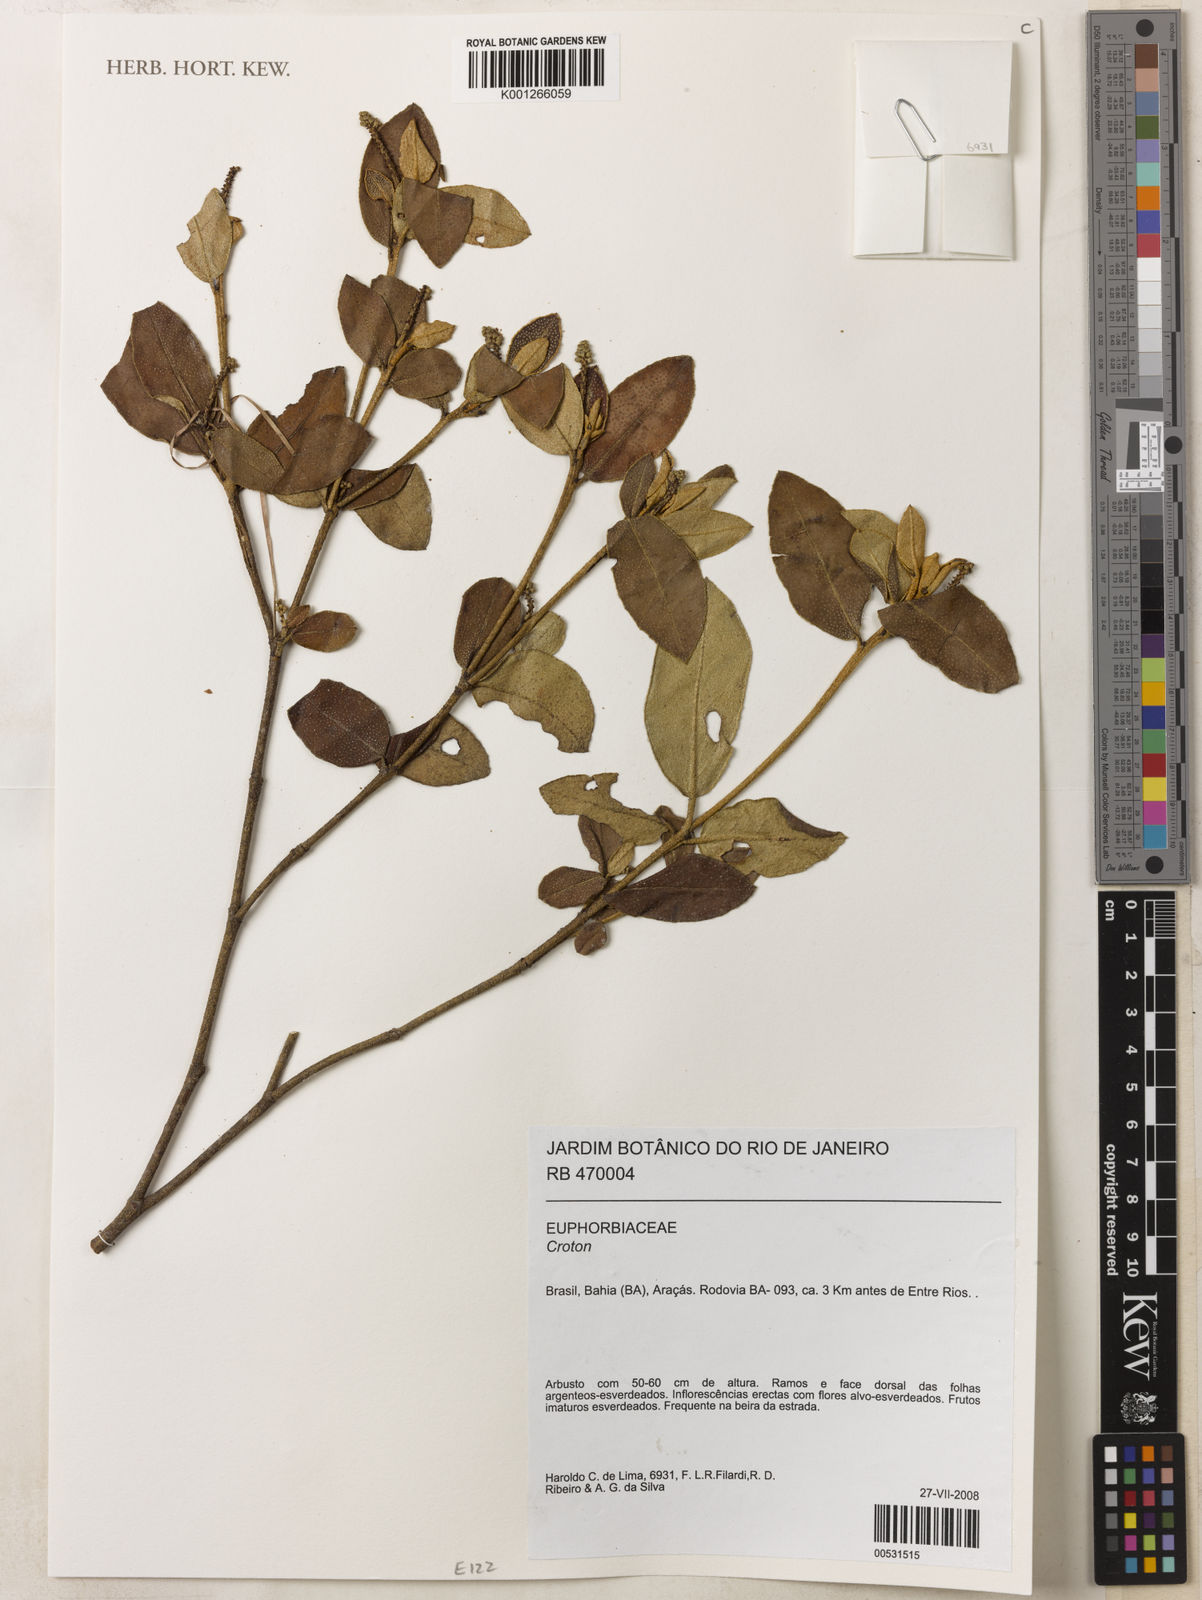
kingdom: Plantae
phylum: Tracheophyta
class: Magnoliopsida
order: Malpighiales
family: Euphorbiaceae
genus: Croton
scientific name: Croton myrsinites
